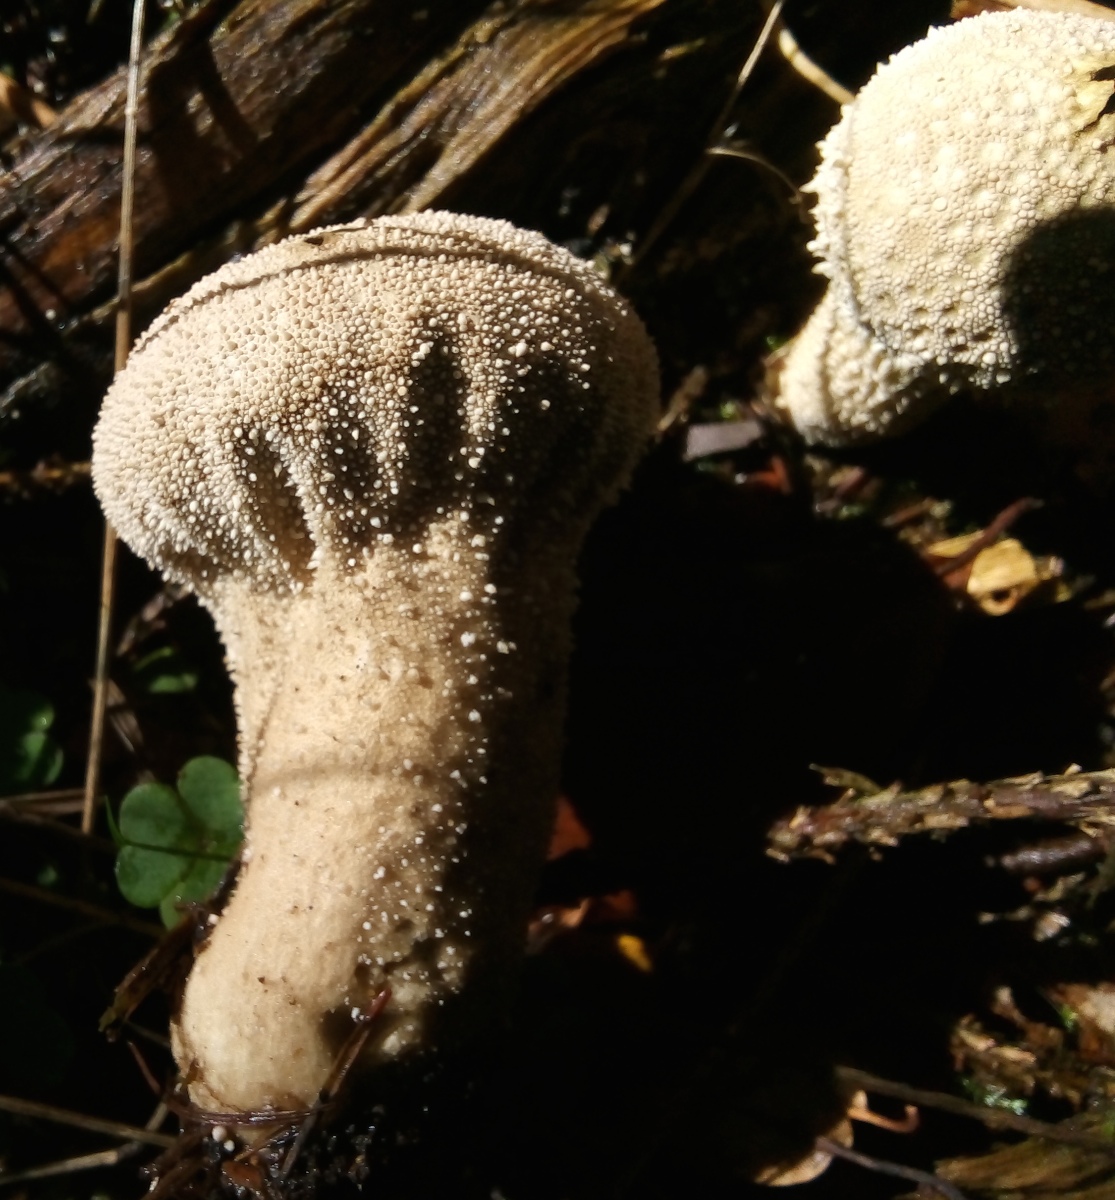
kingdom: Fungi
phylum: Basidiomycota
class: Agaricomycetes
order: Agaricales
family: Lycoperdaceae
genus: Lycoperdon
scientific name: Lycoperdon perlatum
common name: krystal-støvbold
